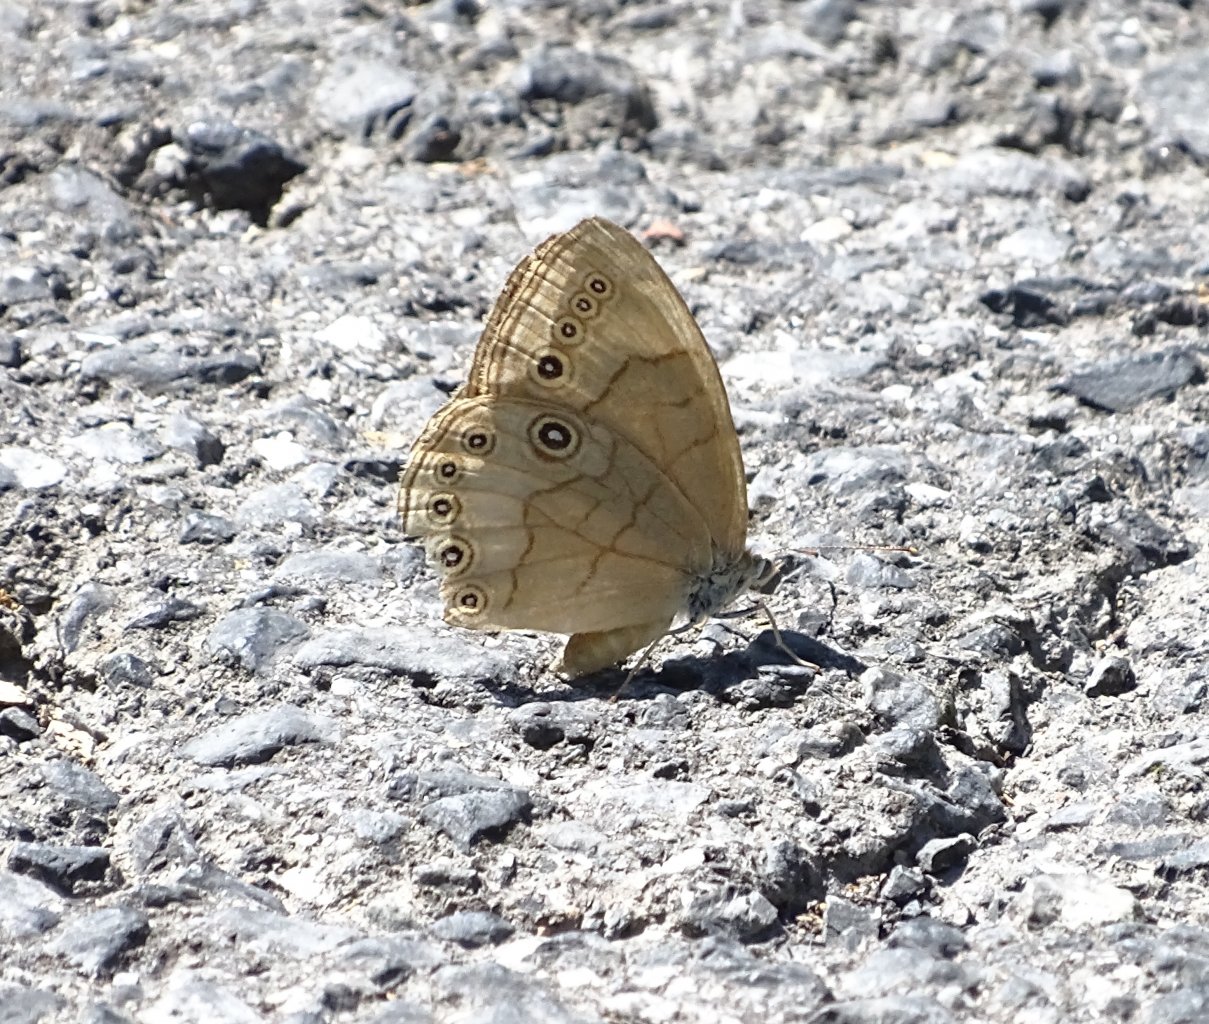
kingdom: Animalia
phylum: Arthropoda
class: Insecta
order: Lepidoptera
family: Nymphalidae
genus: Lethe
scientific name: Lethe eurydice
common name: Appalachian Eyed Brown
